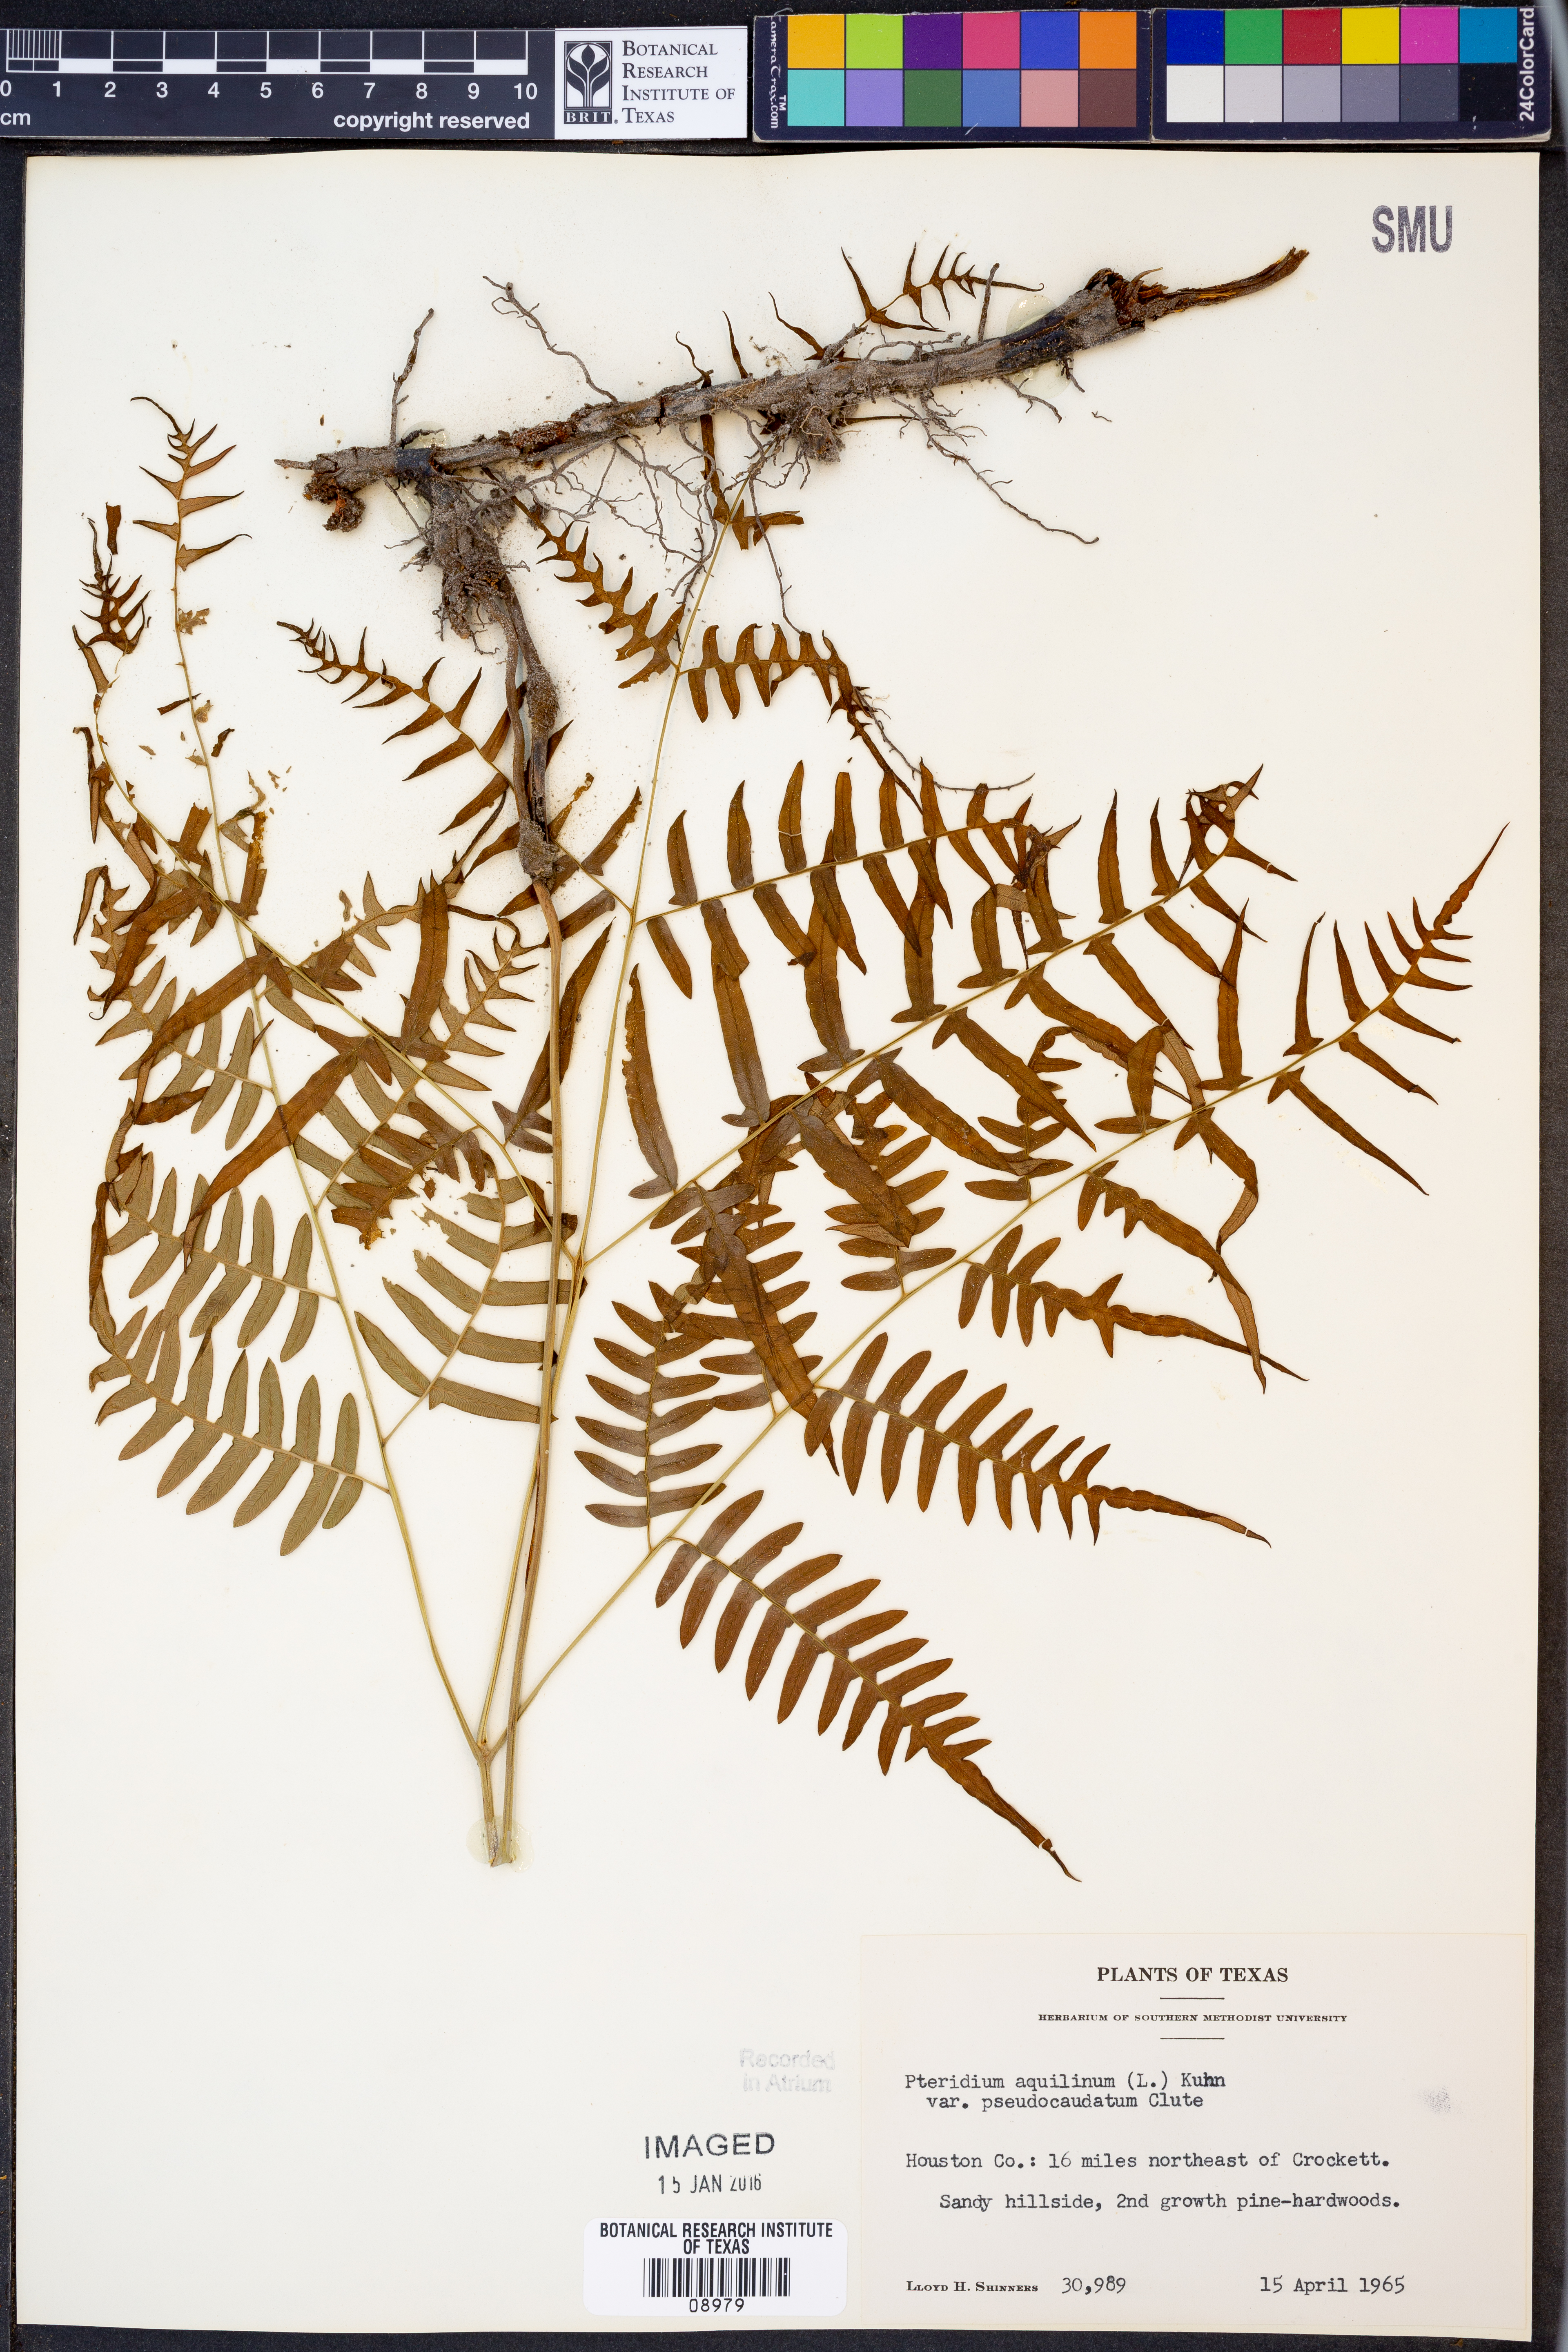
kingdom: Plantae
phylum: Tracheophyta
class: Polypodiopsida
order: Polypodiales
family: Dennstaedtiaceae
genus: Pteridium
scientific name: Pteridium aquilinum
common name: Bracken
